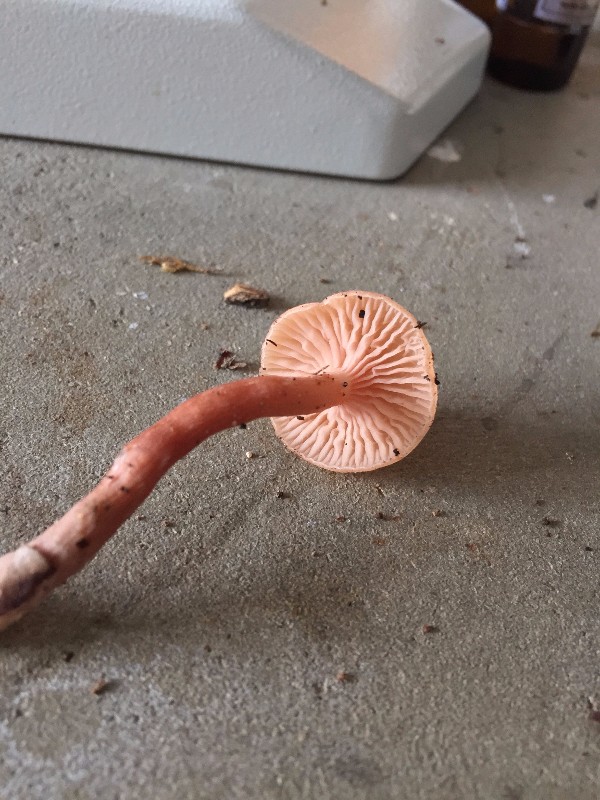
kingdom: Fungi
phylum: Basidiomycota
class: Agaricomycetes
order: Agaricales
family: Hydnangiaceae
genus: Laccaria
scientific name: Laccaria laccata
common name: rød ametysthat
